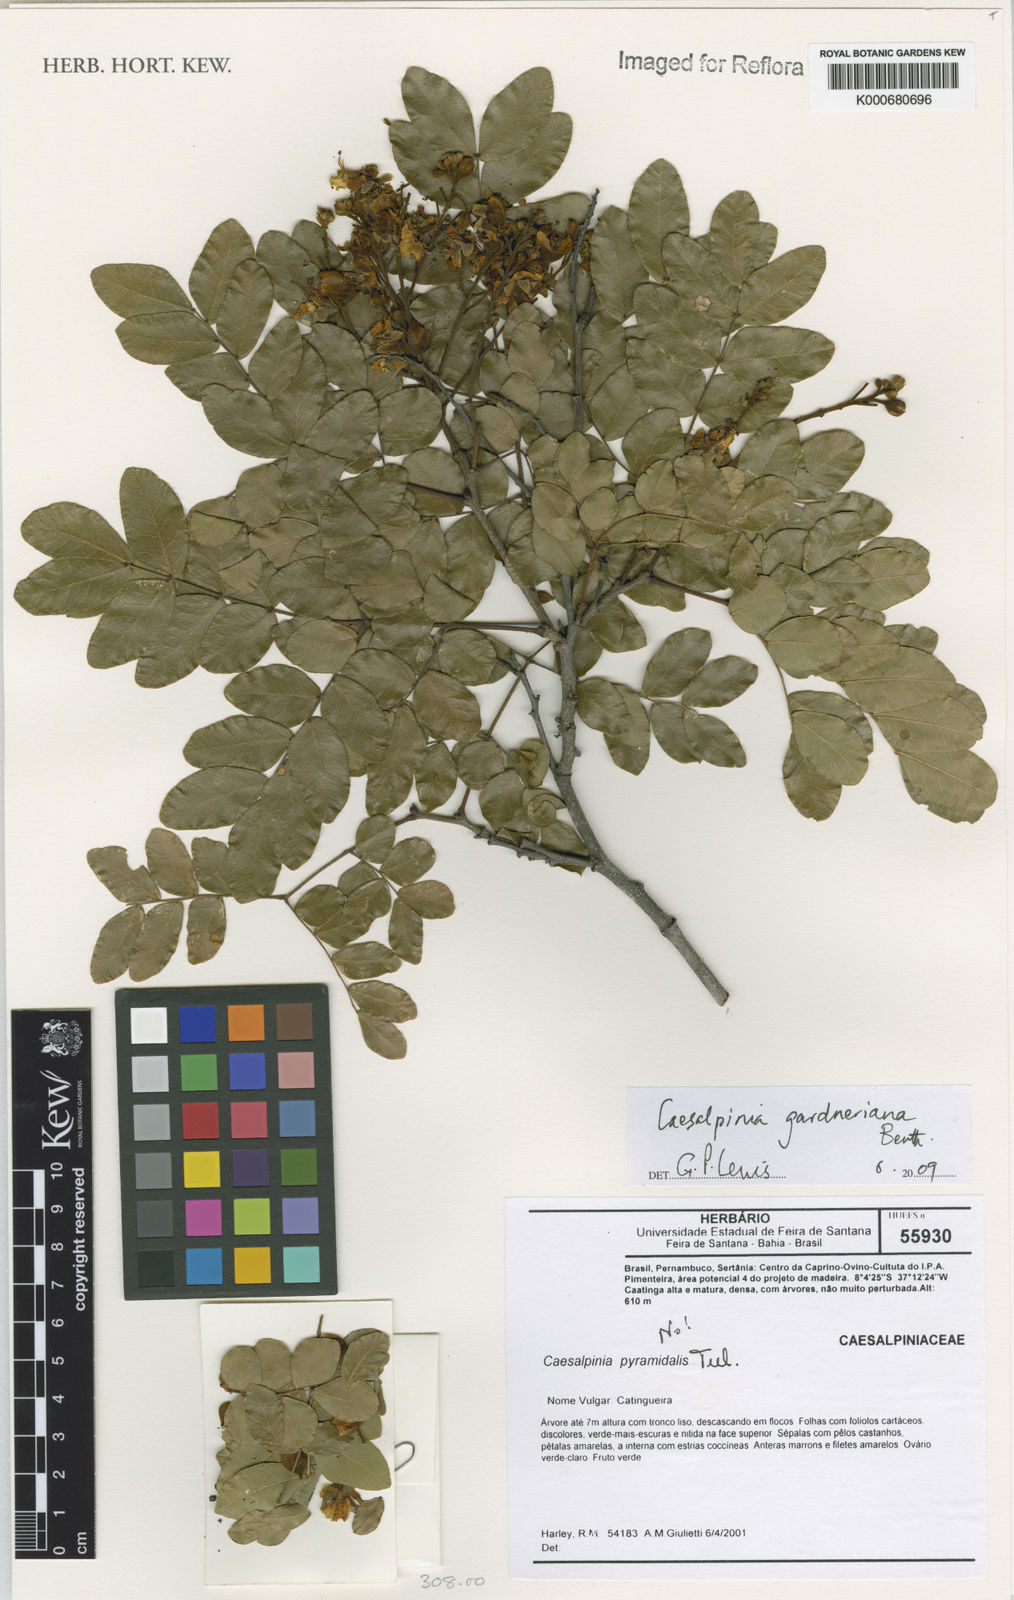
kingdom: Plantae
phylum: Tracheophyta
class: Magnoliopsida
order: Fabales
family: Fabaceae
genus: Cenostigma
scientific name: Cenostigma nordestinum
